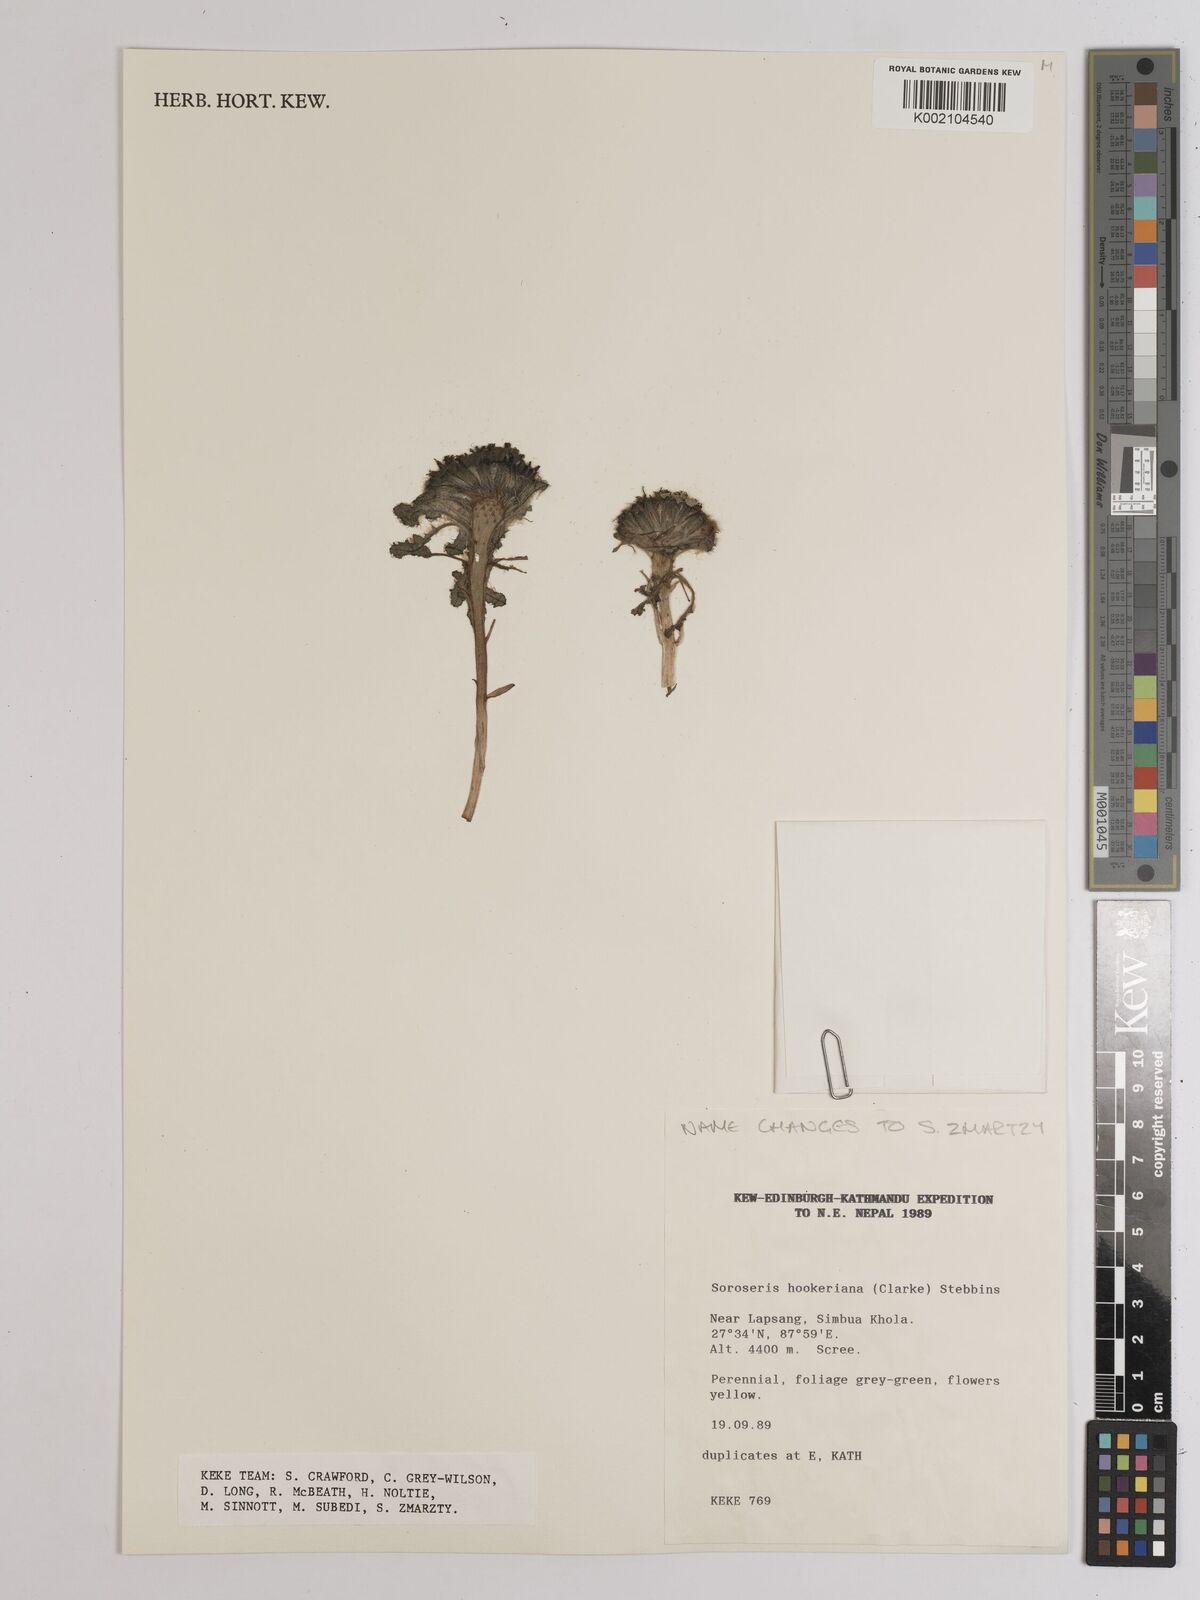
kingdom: Plantae
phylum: Tracheophyta
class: Magnoliopsida
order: Asterales
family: Asteraceae
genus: Soroseris
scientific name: Soroseris hookeriana
